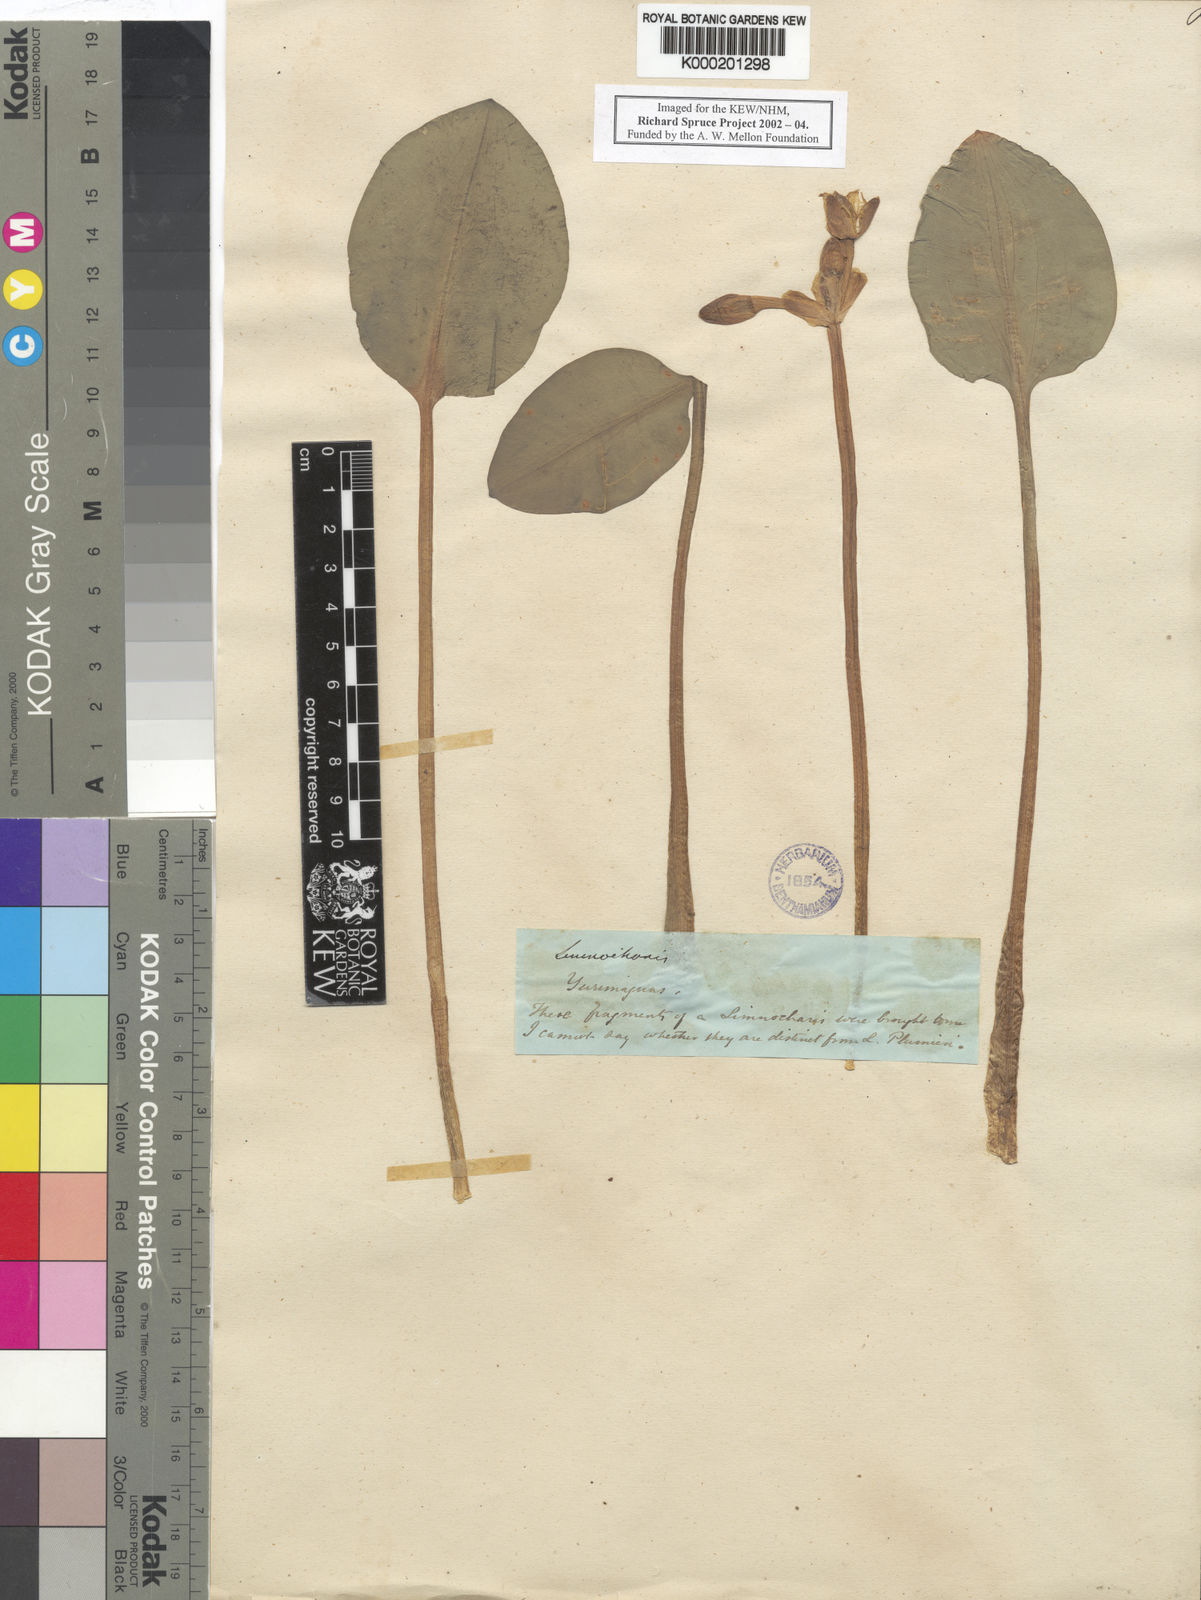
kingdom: Plantae
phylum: Tracheophyta
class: Liliopsida
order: Alismatales
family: Alismataceae
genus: Limnocharis
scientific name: Limnocharis flava
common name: Sawah-flower-rush
